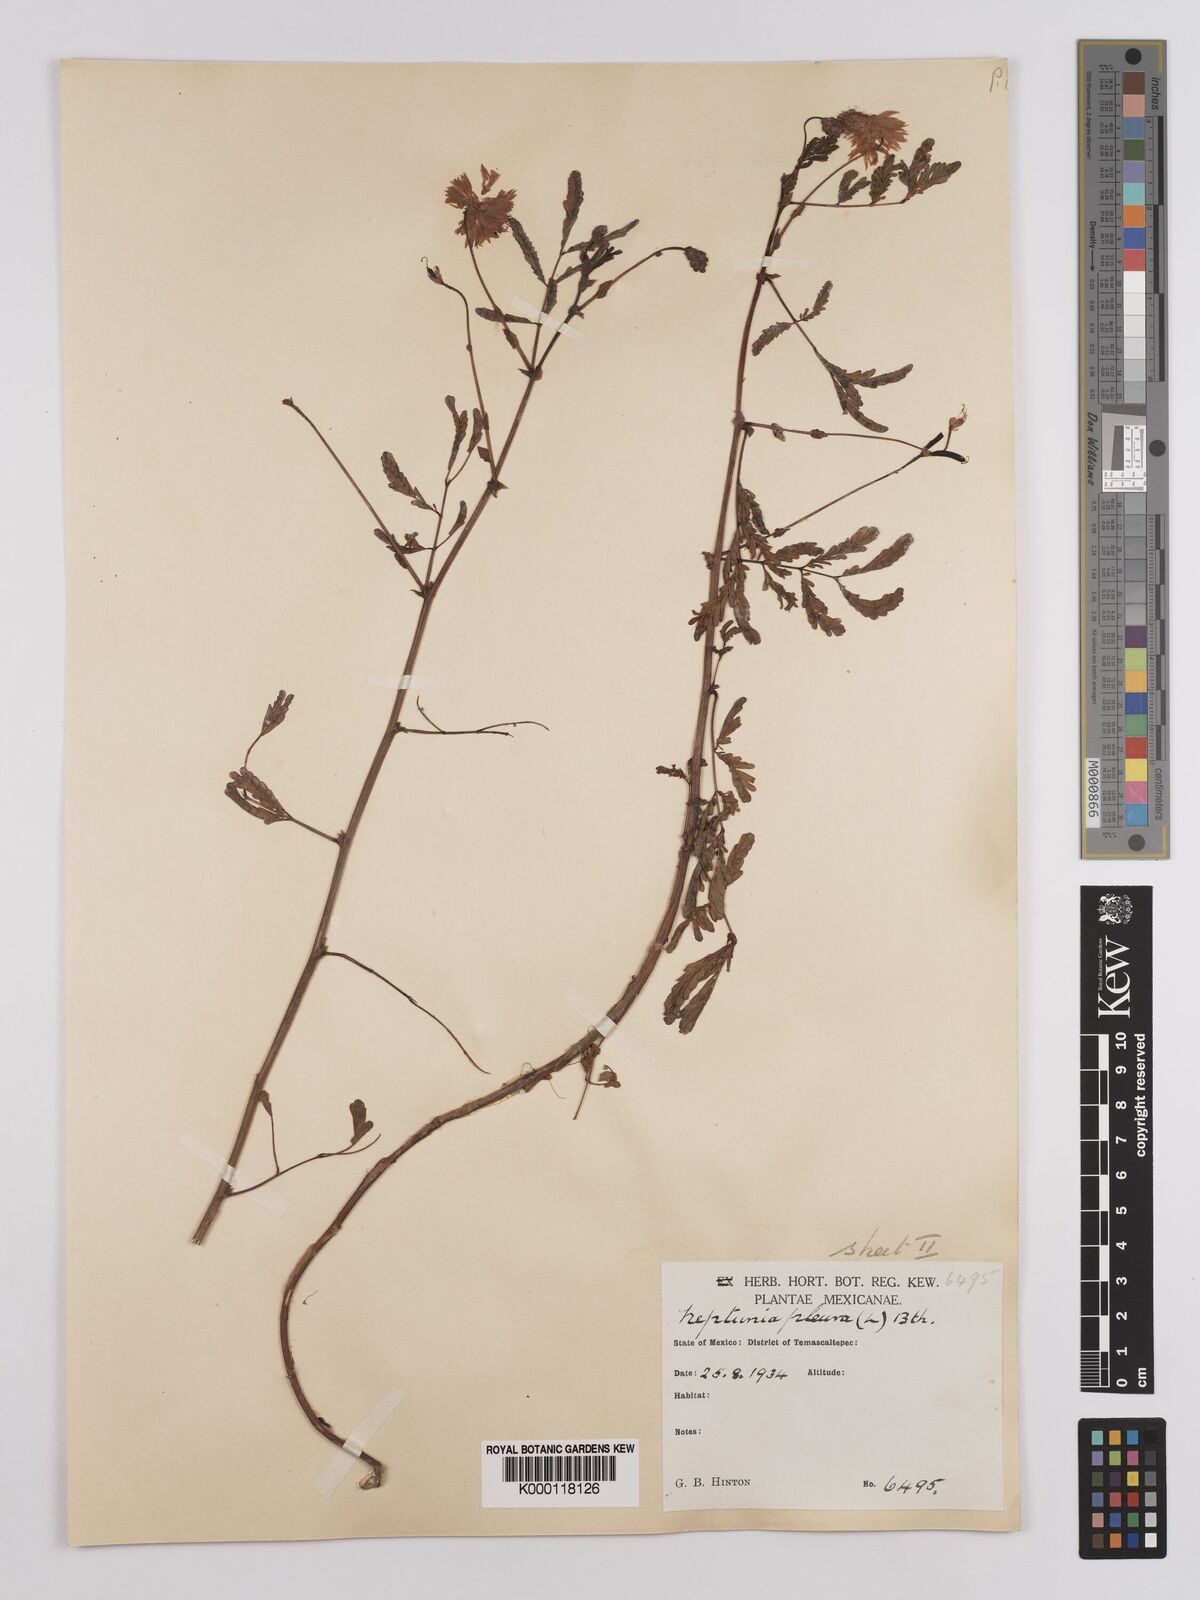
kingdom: Plantae
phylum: Tracheophyta
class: Magnoliopsida
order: Fabales
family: Fabaceae
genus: Neptunia
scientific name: Neptunia plena
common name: Dead and awake
